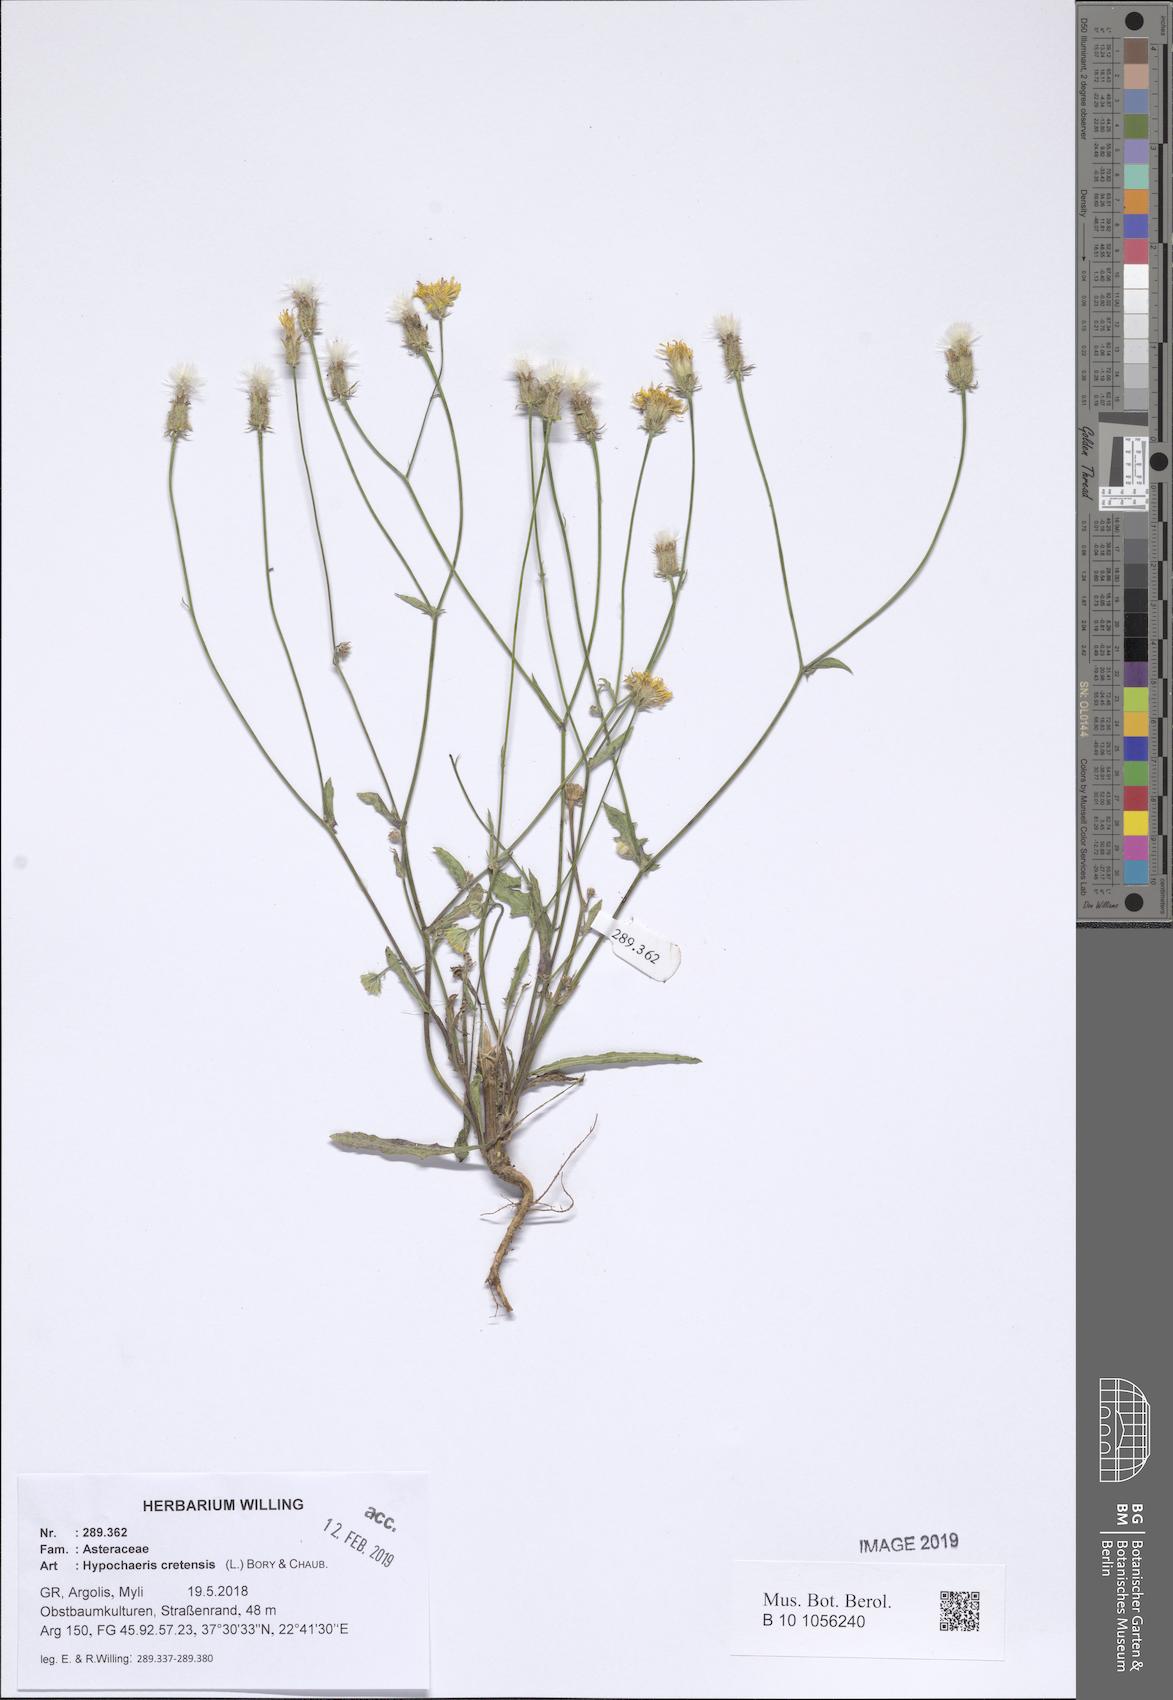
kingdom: Plantae
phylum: Tracheophyta
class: Magnoliopsida
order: Asterales
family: Asteraceae
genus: Hypochaeris
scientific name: Hypochaeris cretensis
